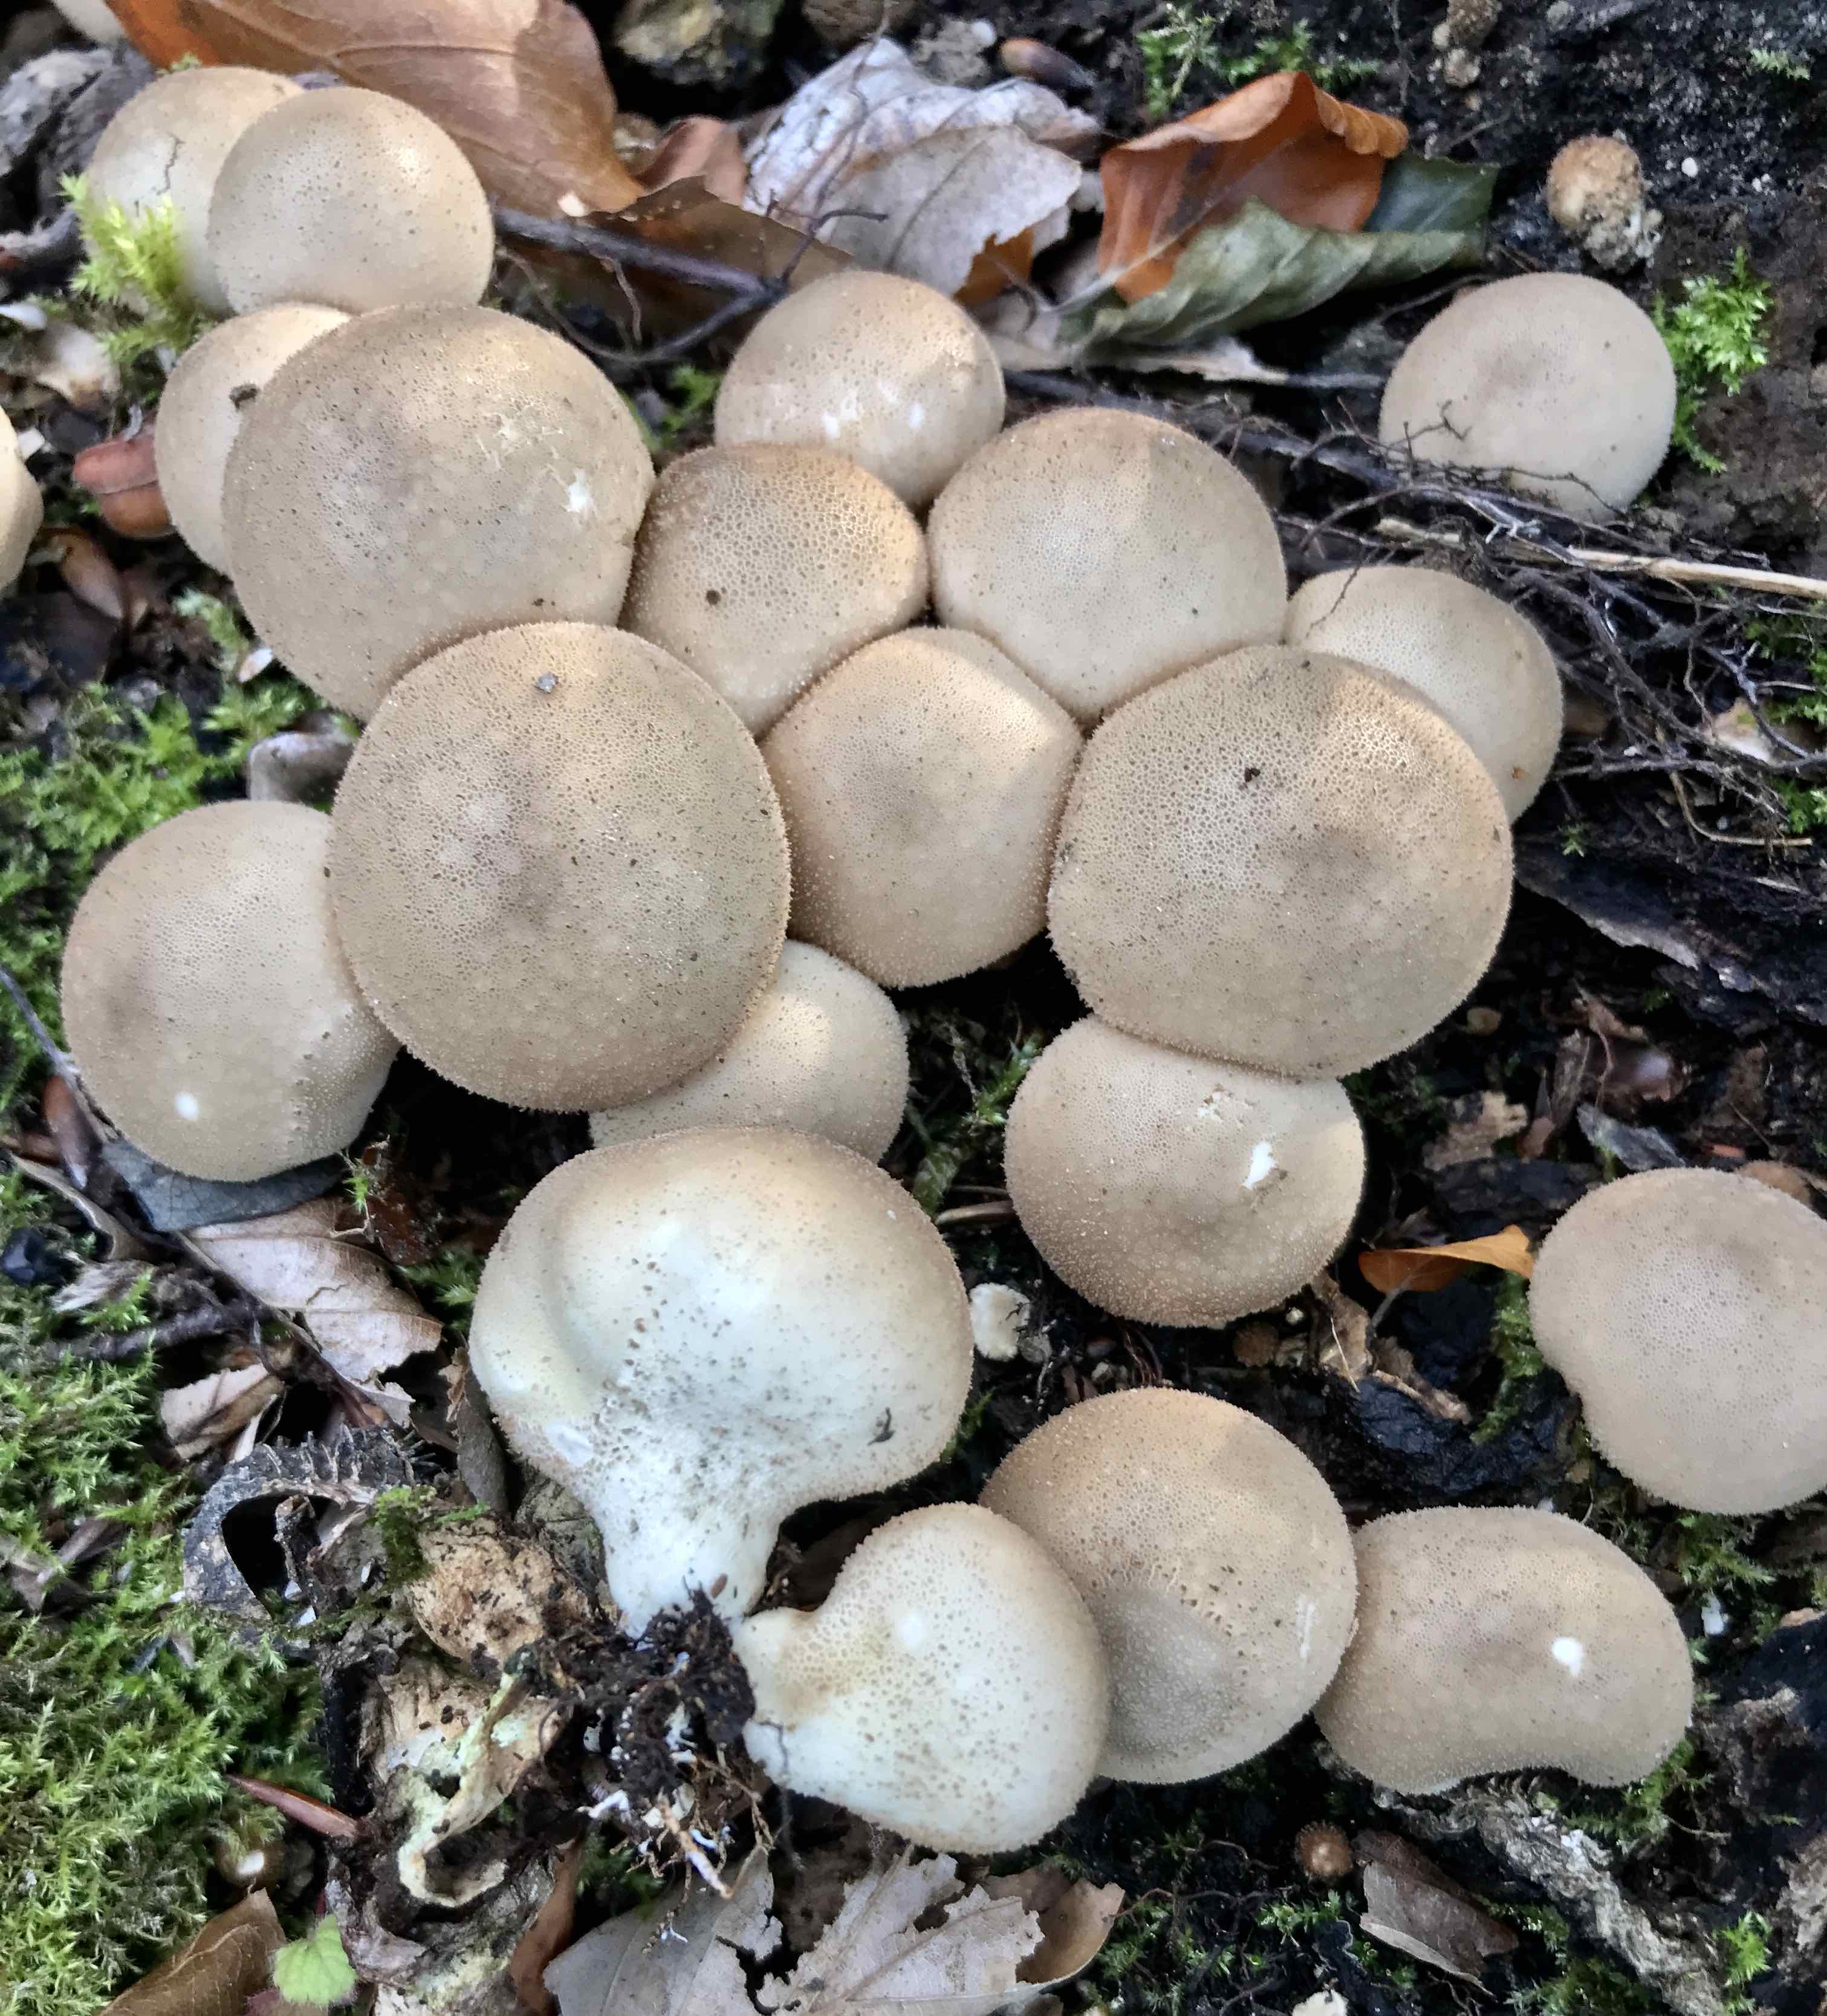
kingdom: Fungi
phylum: Basidiomycota
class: Agaricomycetes
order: Agaricales
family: Lycoperdaceae
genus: Apioperdon
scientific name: Apioperdon pyriforme
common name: pære-støvbold
